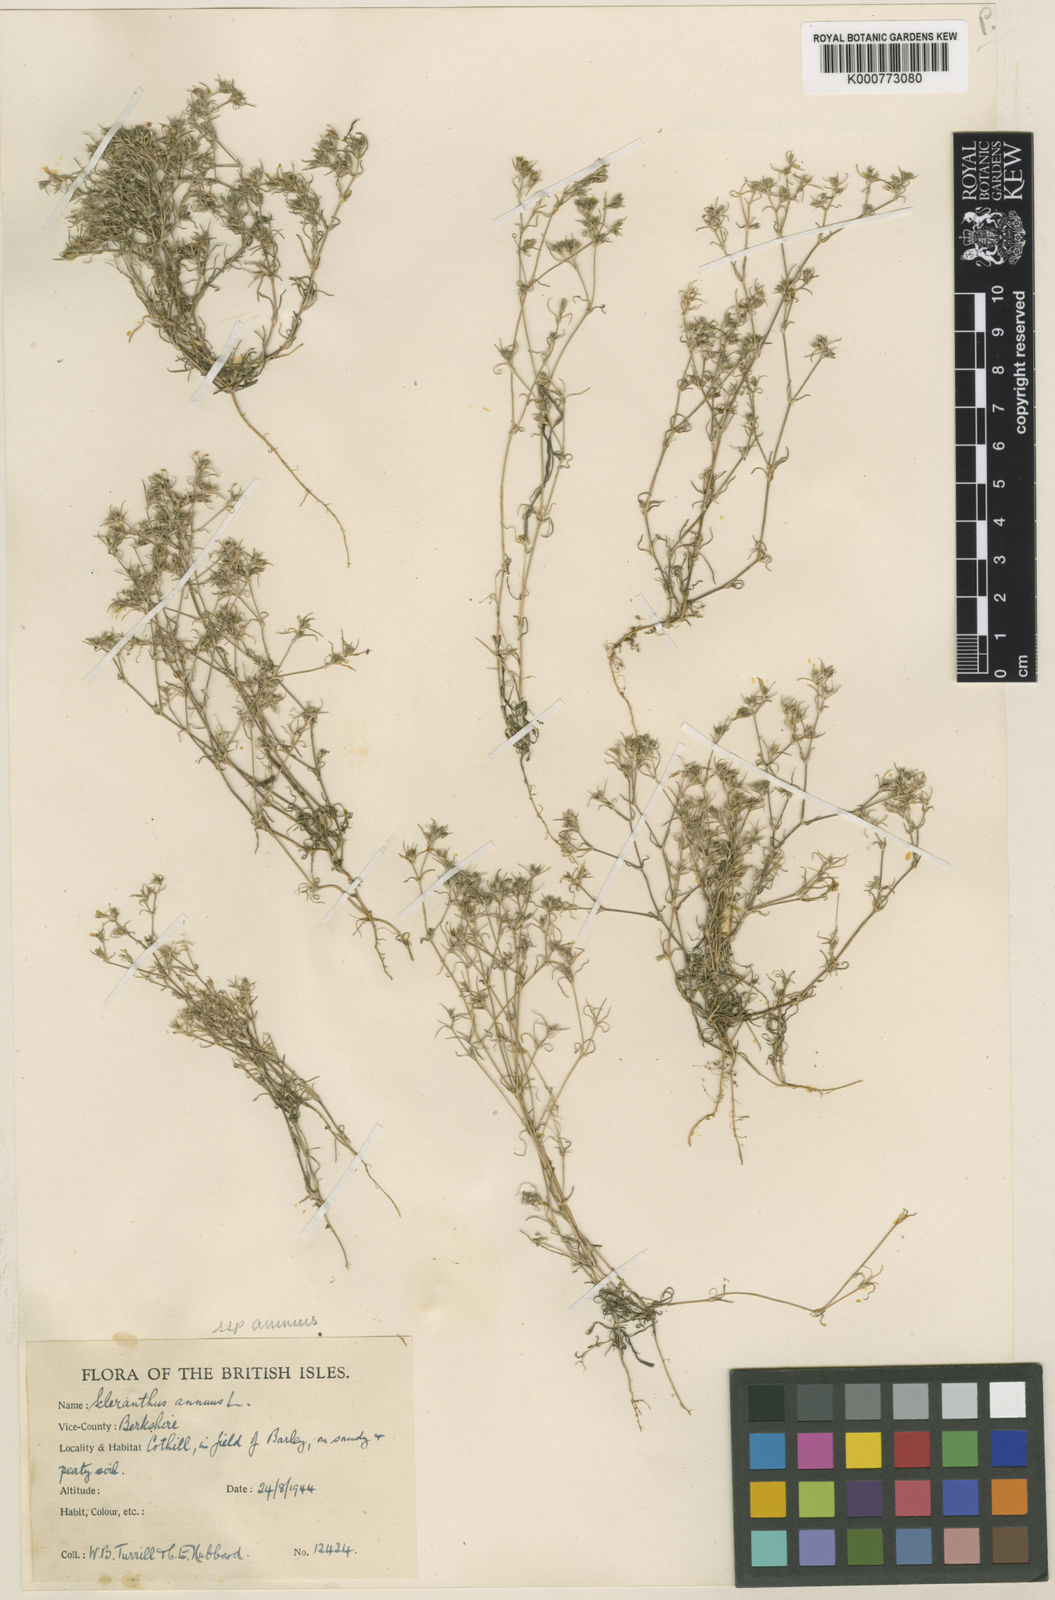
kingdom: Plantae
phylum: Tracheophyta
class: Magnoliopsida
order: Caryophyllales
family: Caryophyllaceae
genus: Scleranthus
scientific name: Scleranthus annuus
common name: Annual knawel
